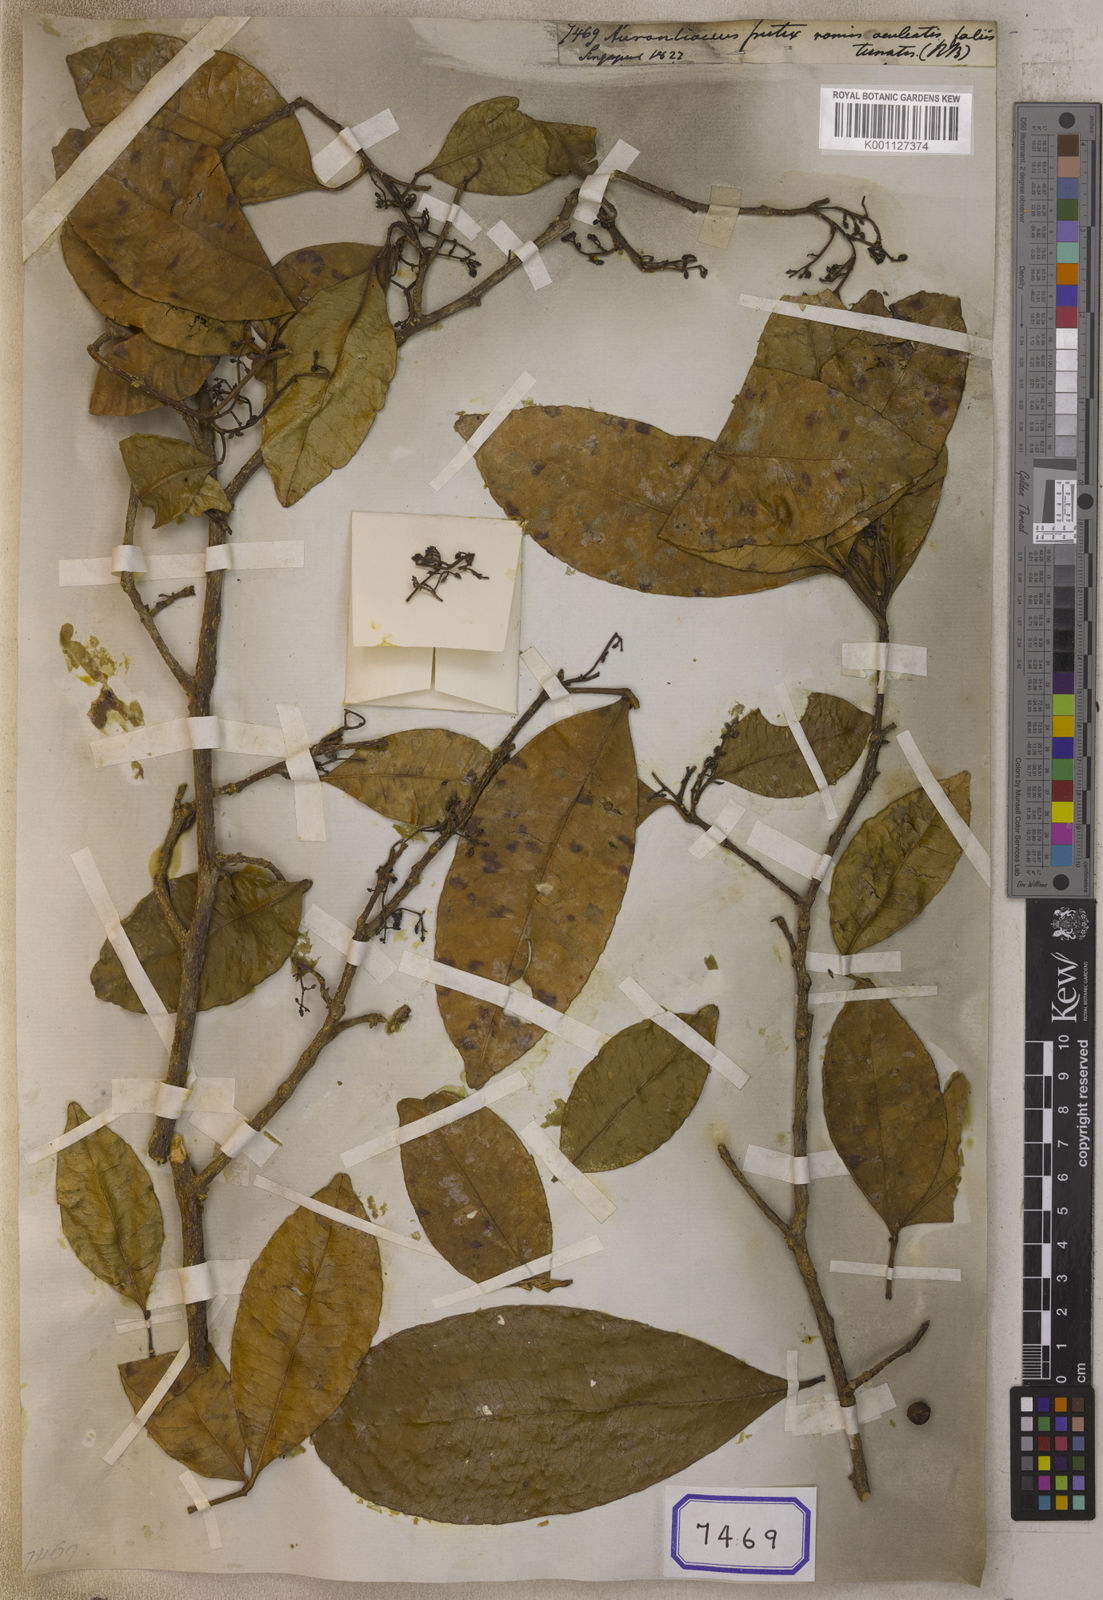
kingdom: Plantae
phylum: Tracheophyta
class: Magnoliopsida
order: Sapindales
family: Rutaceae
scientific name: Rutaceae
